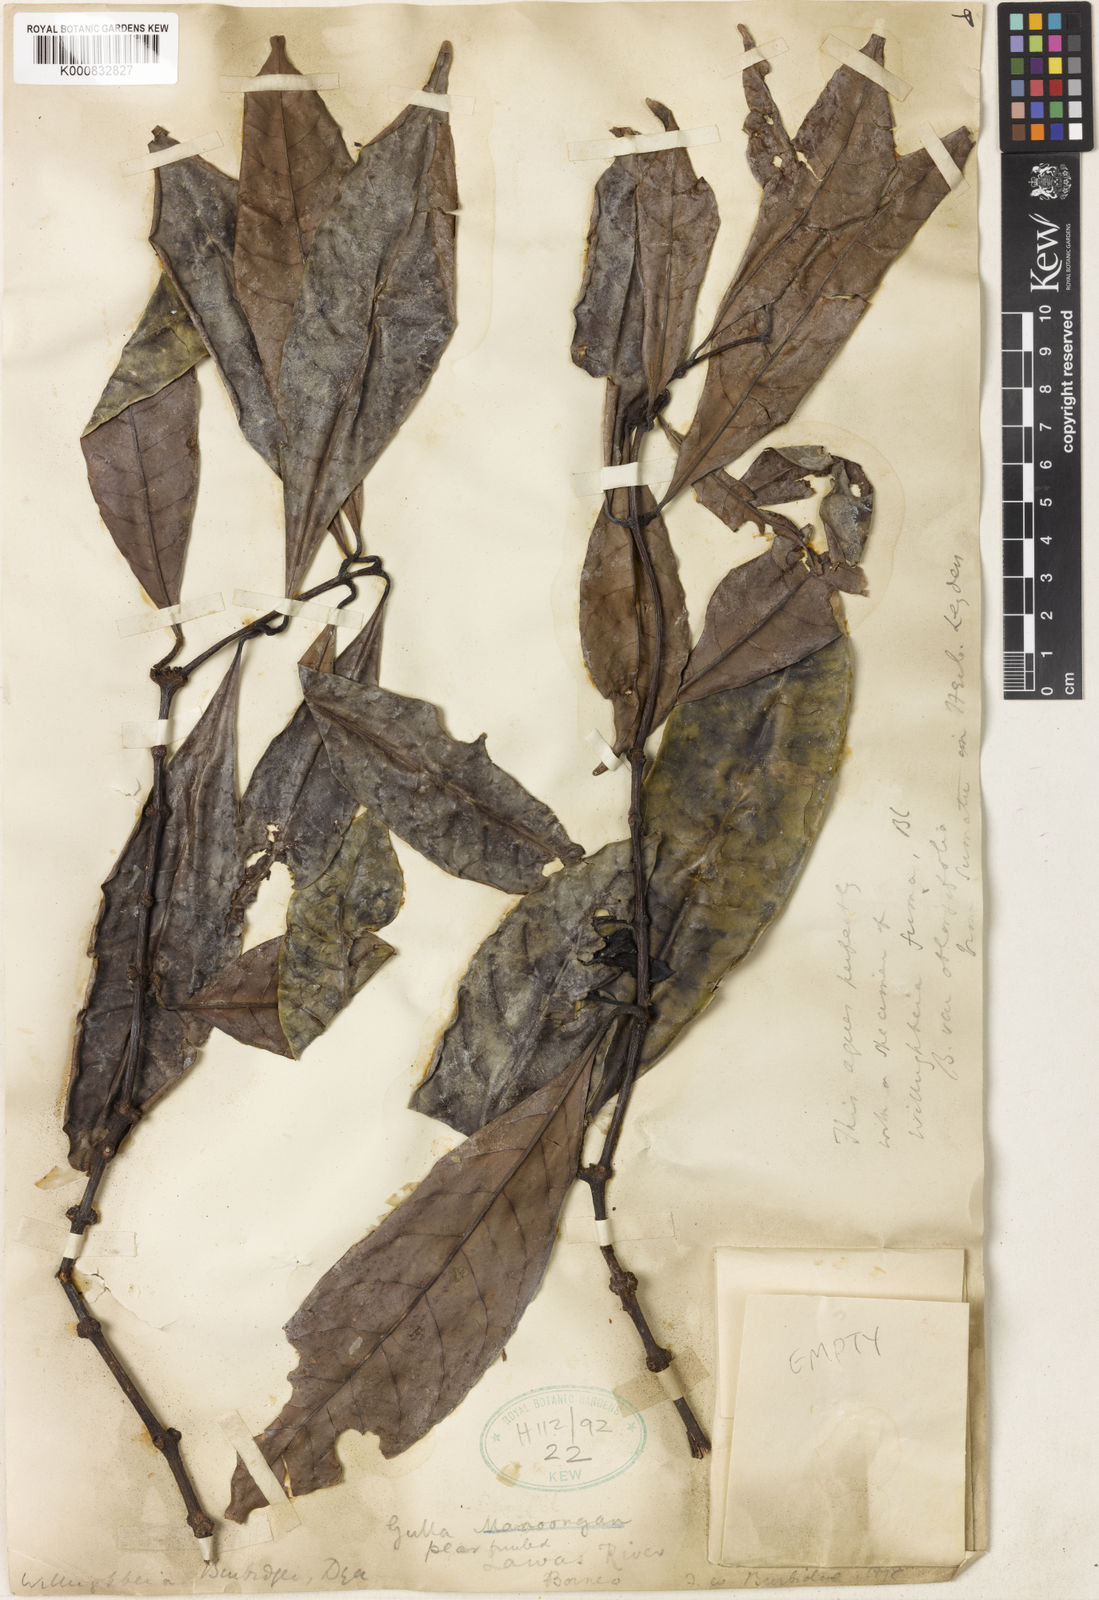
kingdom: Plantae
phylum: Tracheophyta
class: Magnoliopsida
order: Gentianales
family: Apocynaceae
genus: Willughbeia
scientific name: Willughbeia coriacea
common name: Borneo-rubber
